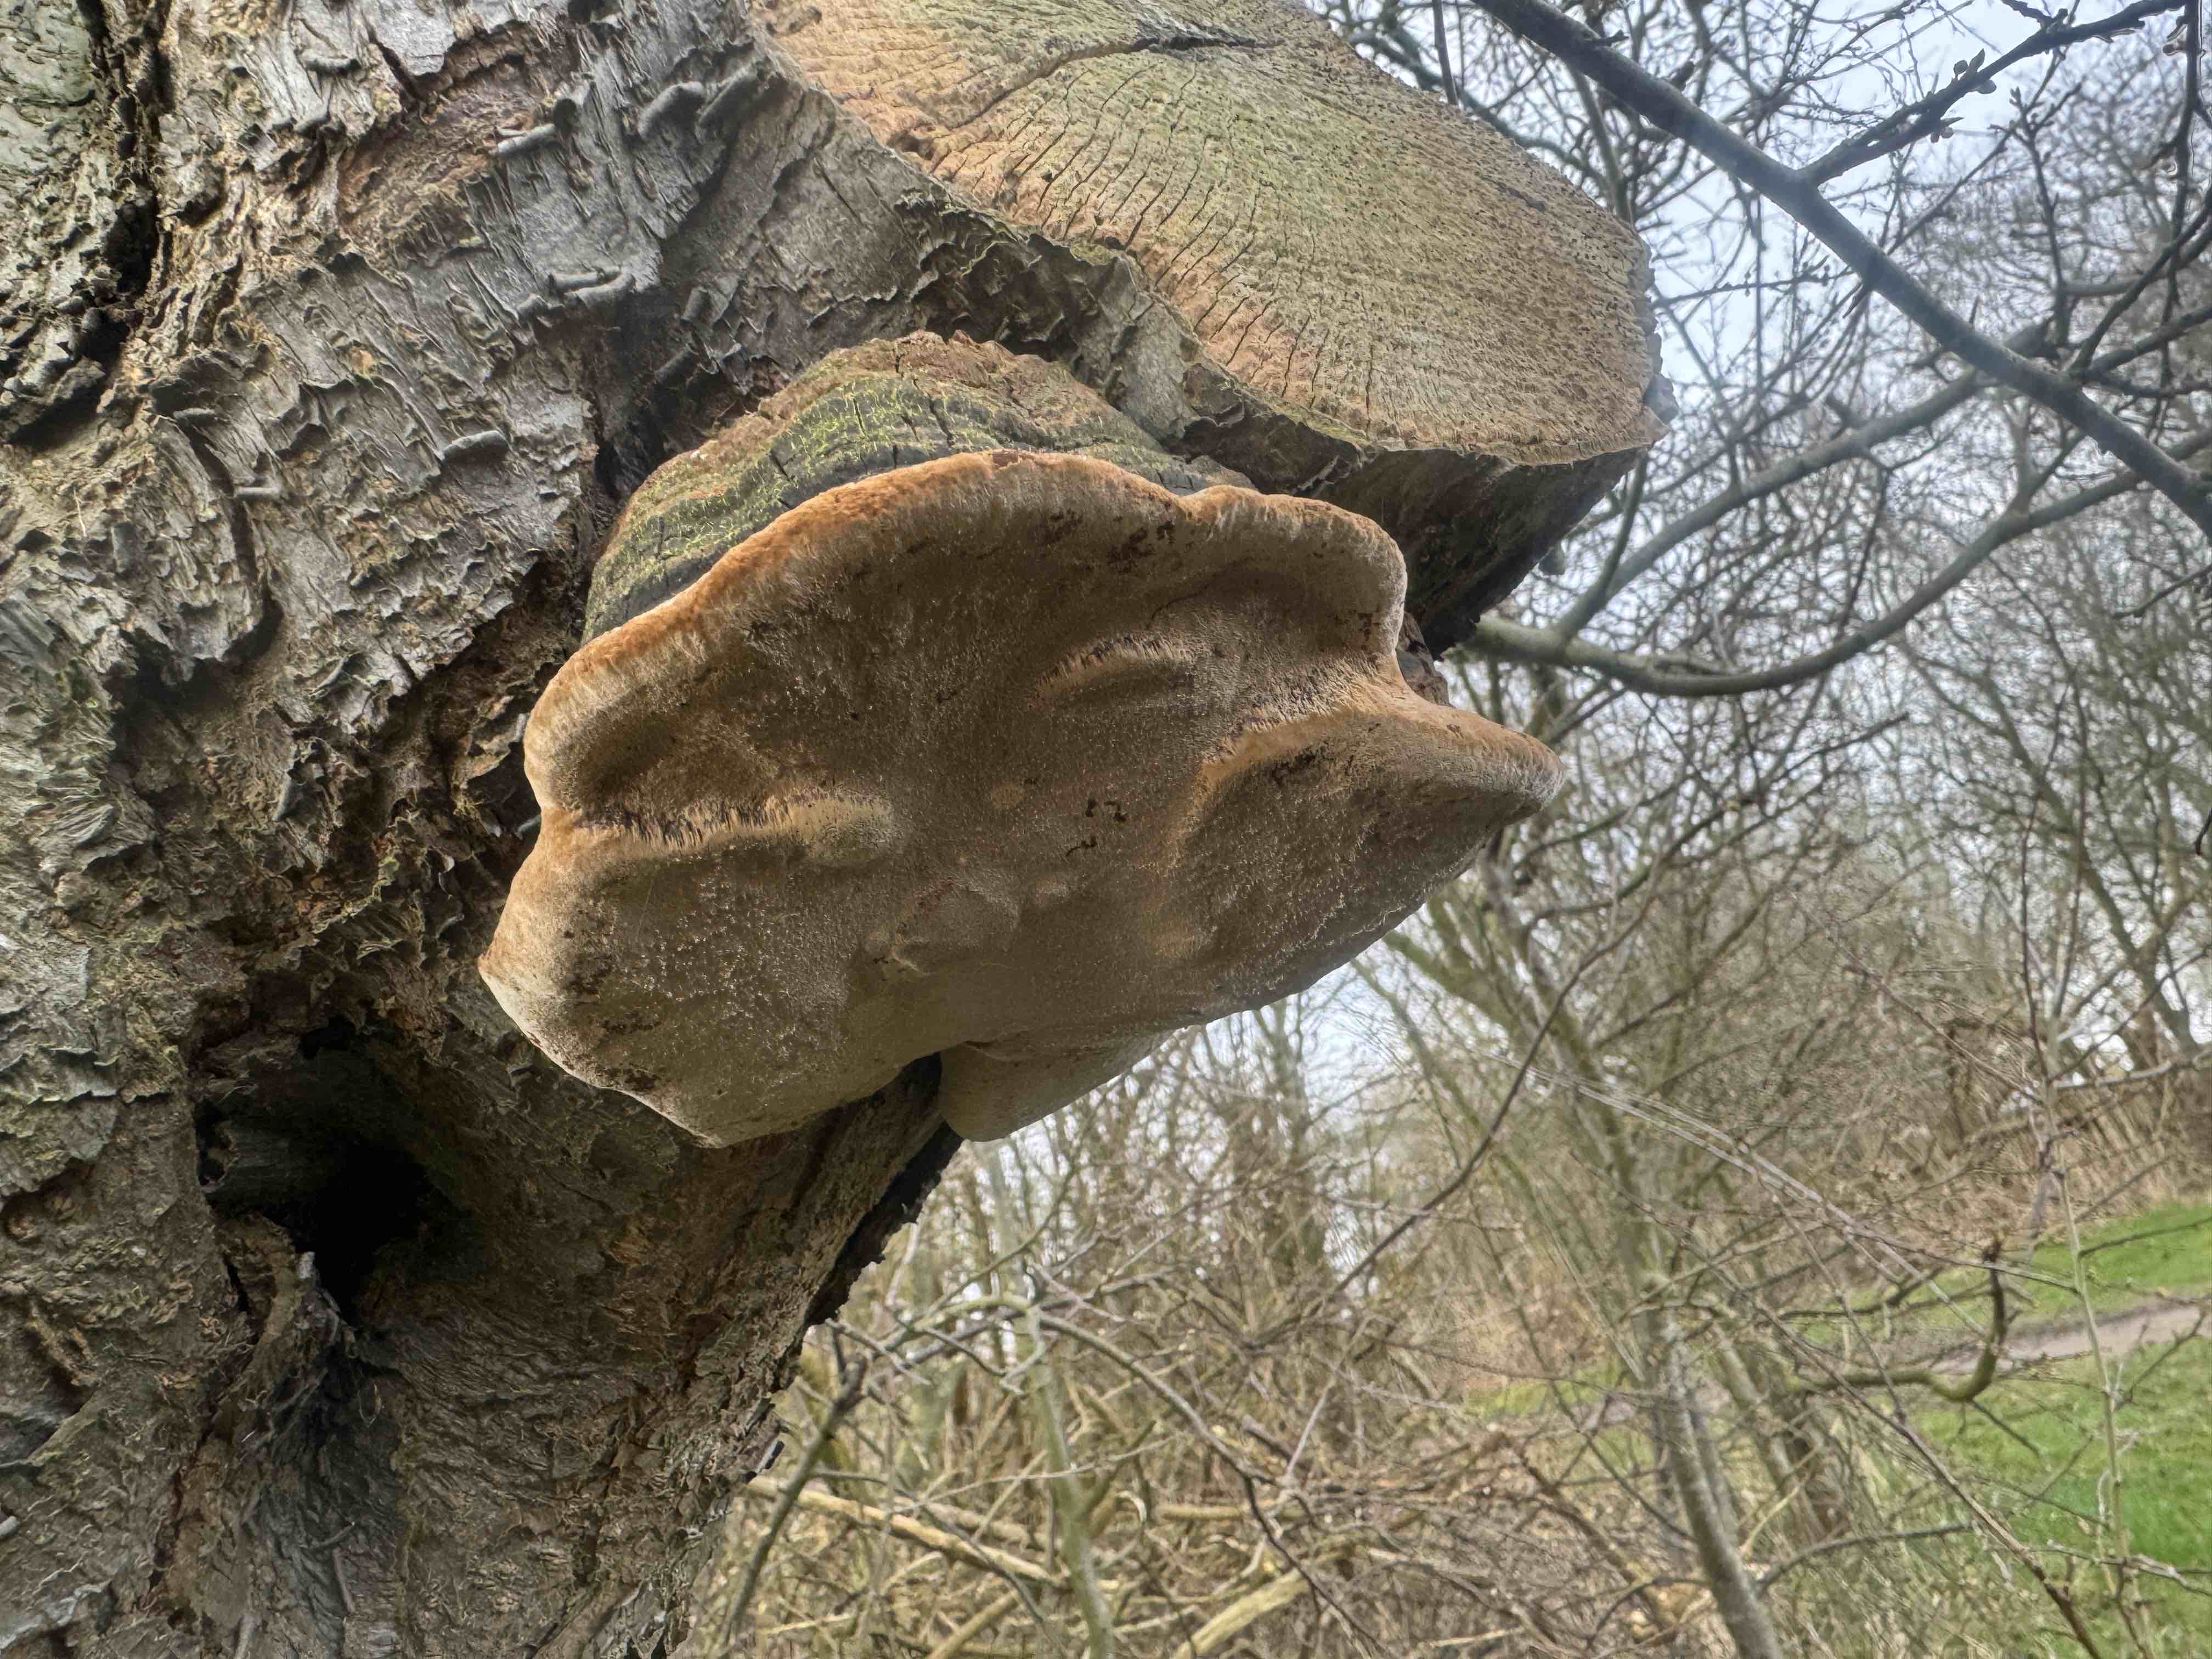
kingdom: Fungi
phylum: Basidiomycota
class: Agaricomycetes
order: Hymenochaetales
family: Hymenochaetaceae
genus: Phellinus
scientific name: Phellinus pomaceus
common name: blomme-ildporesvamp
